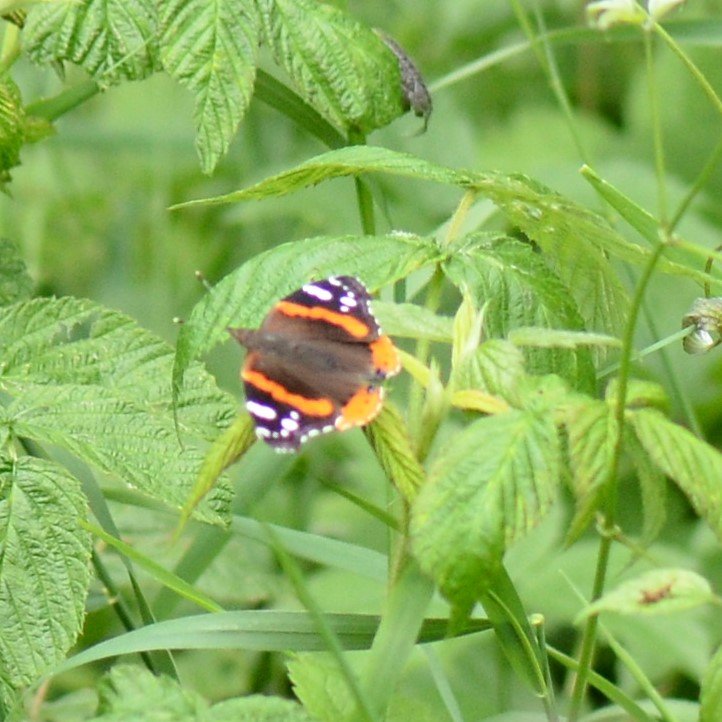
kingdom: Animalia
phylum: Arthropoda
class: Insecta
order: Lepidoptera
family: Nymphalidae
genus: Vanessa
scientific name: Vanessa atalanta
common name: Red Admiral
